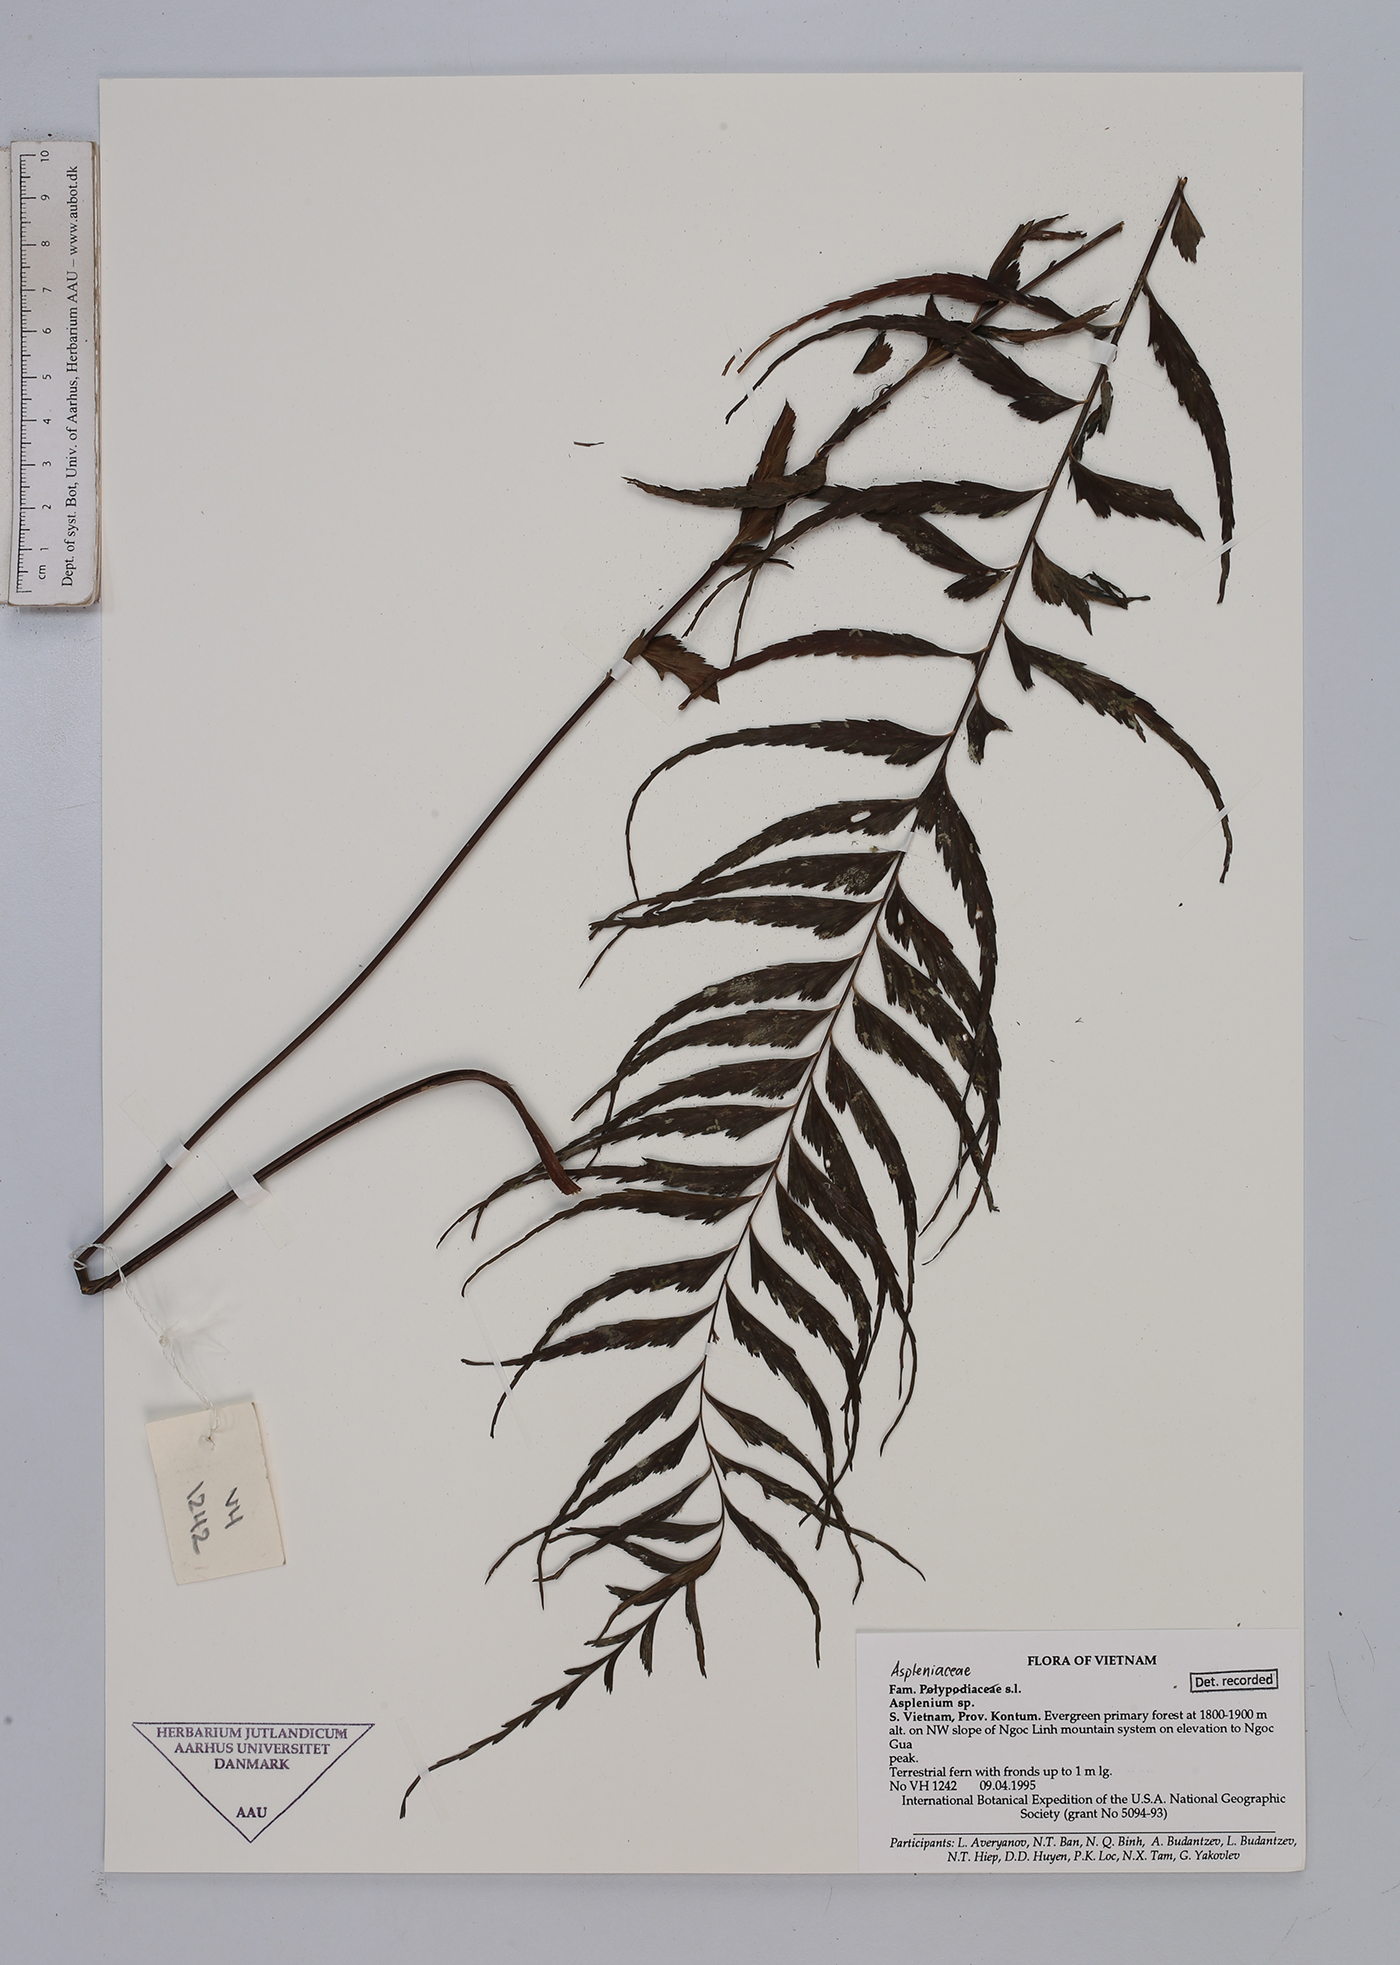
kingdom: Plantae
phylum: Tracheophyta
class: Polypodiopsida
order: Polypodiales
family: Aspleniaceae
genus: Asplenium
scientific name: Asplenium
